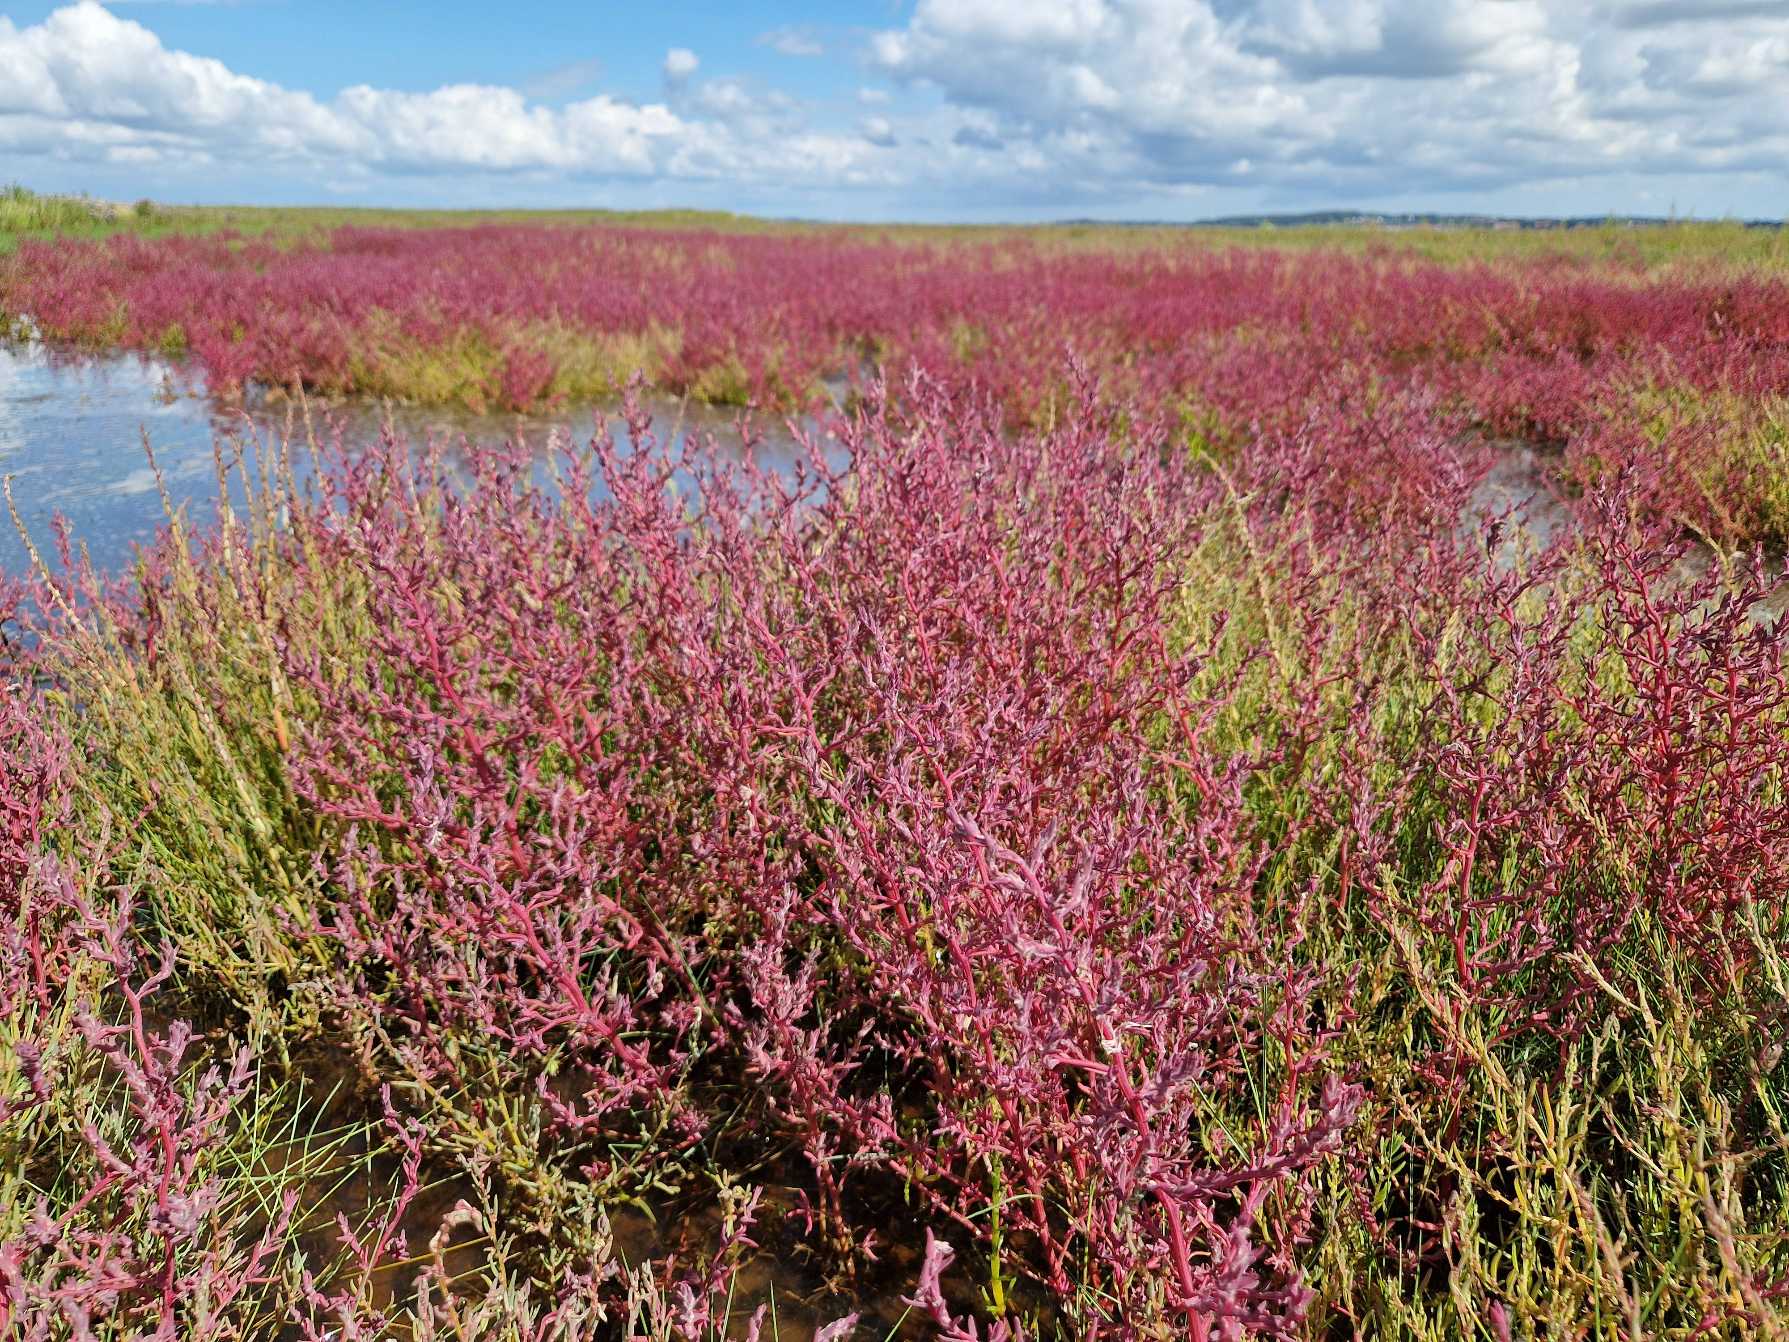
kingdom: Plantae
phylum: Tracheophyta
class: Magnoliopsida
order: Caryophyllales
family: Amaranthaceae
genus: Spirobassia
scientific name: Spirobassia hirsuta
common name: Tangurt
